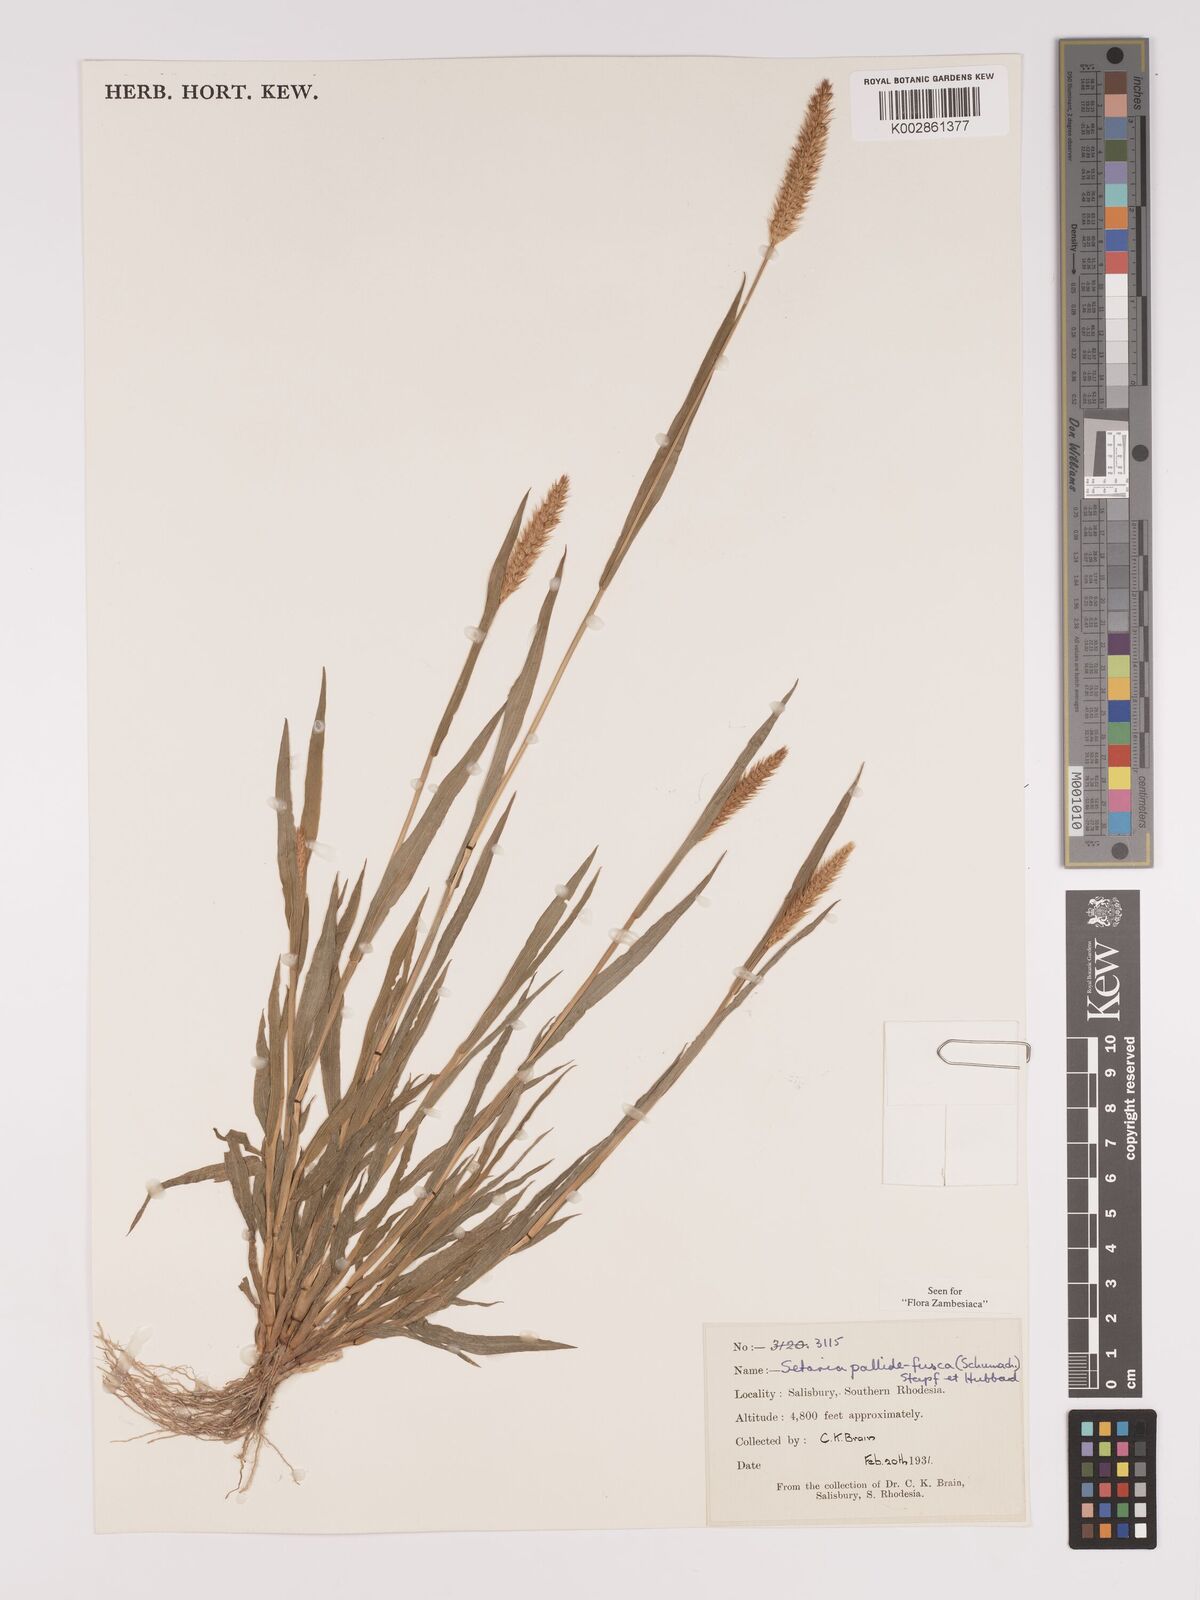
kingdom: Plantae
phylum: Tracheophyta
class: Liliopsida
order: Poales
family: Poaceae
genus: Setaria
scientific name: Setaria pumila
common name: Yellow bristle-grass
